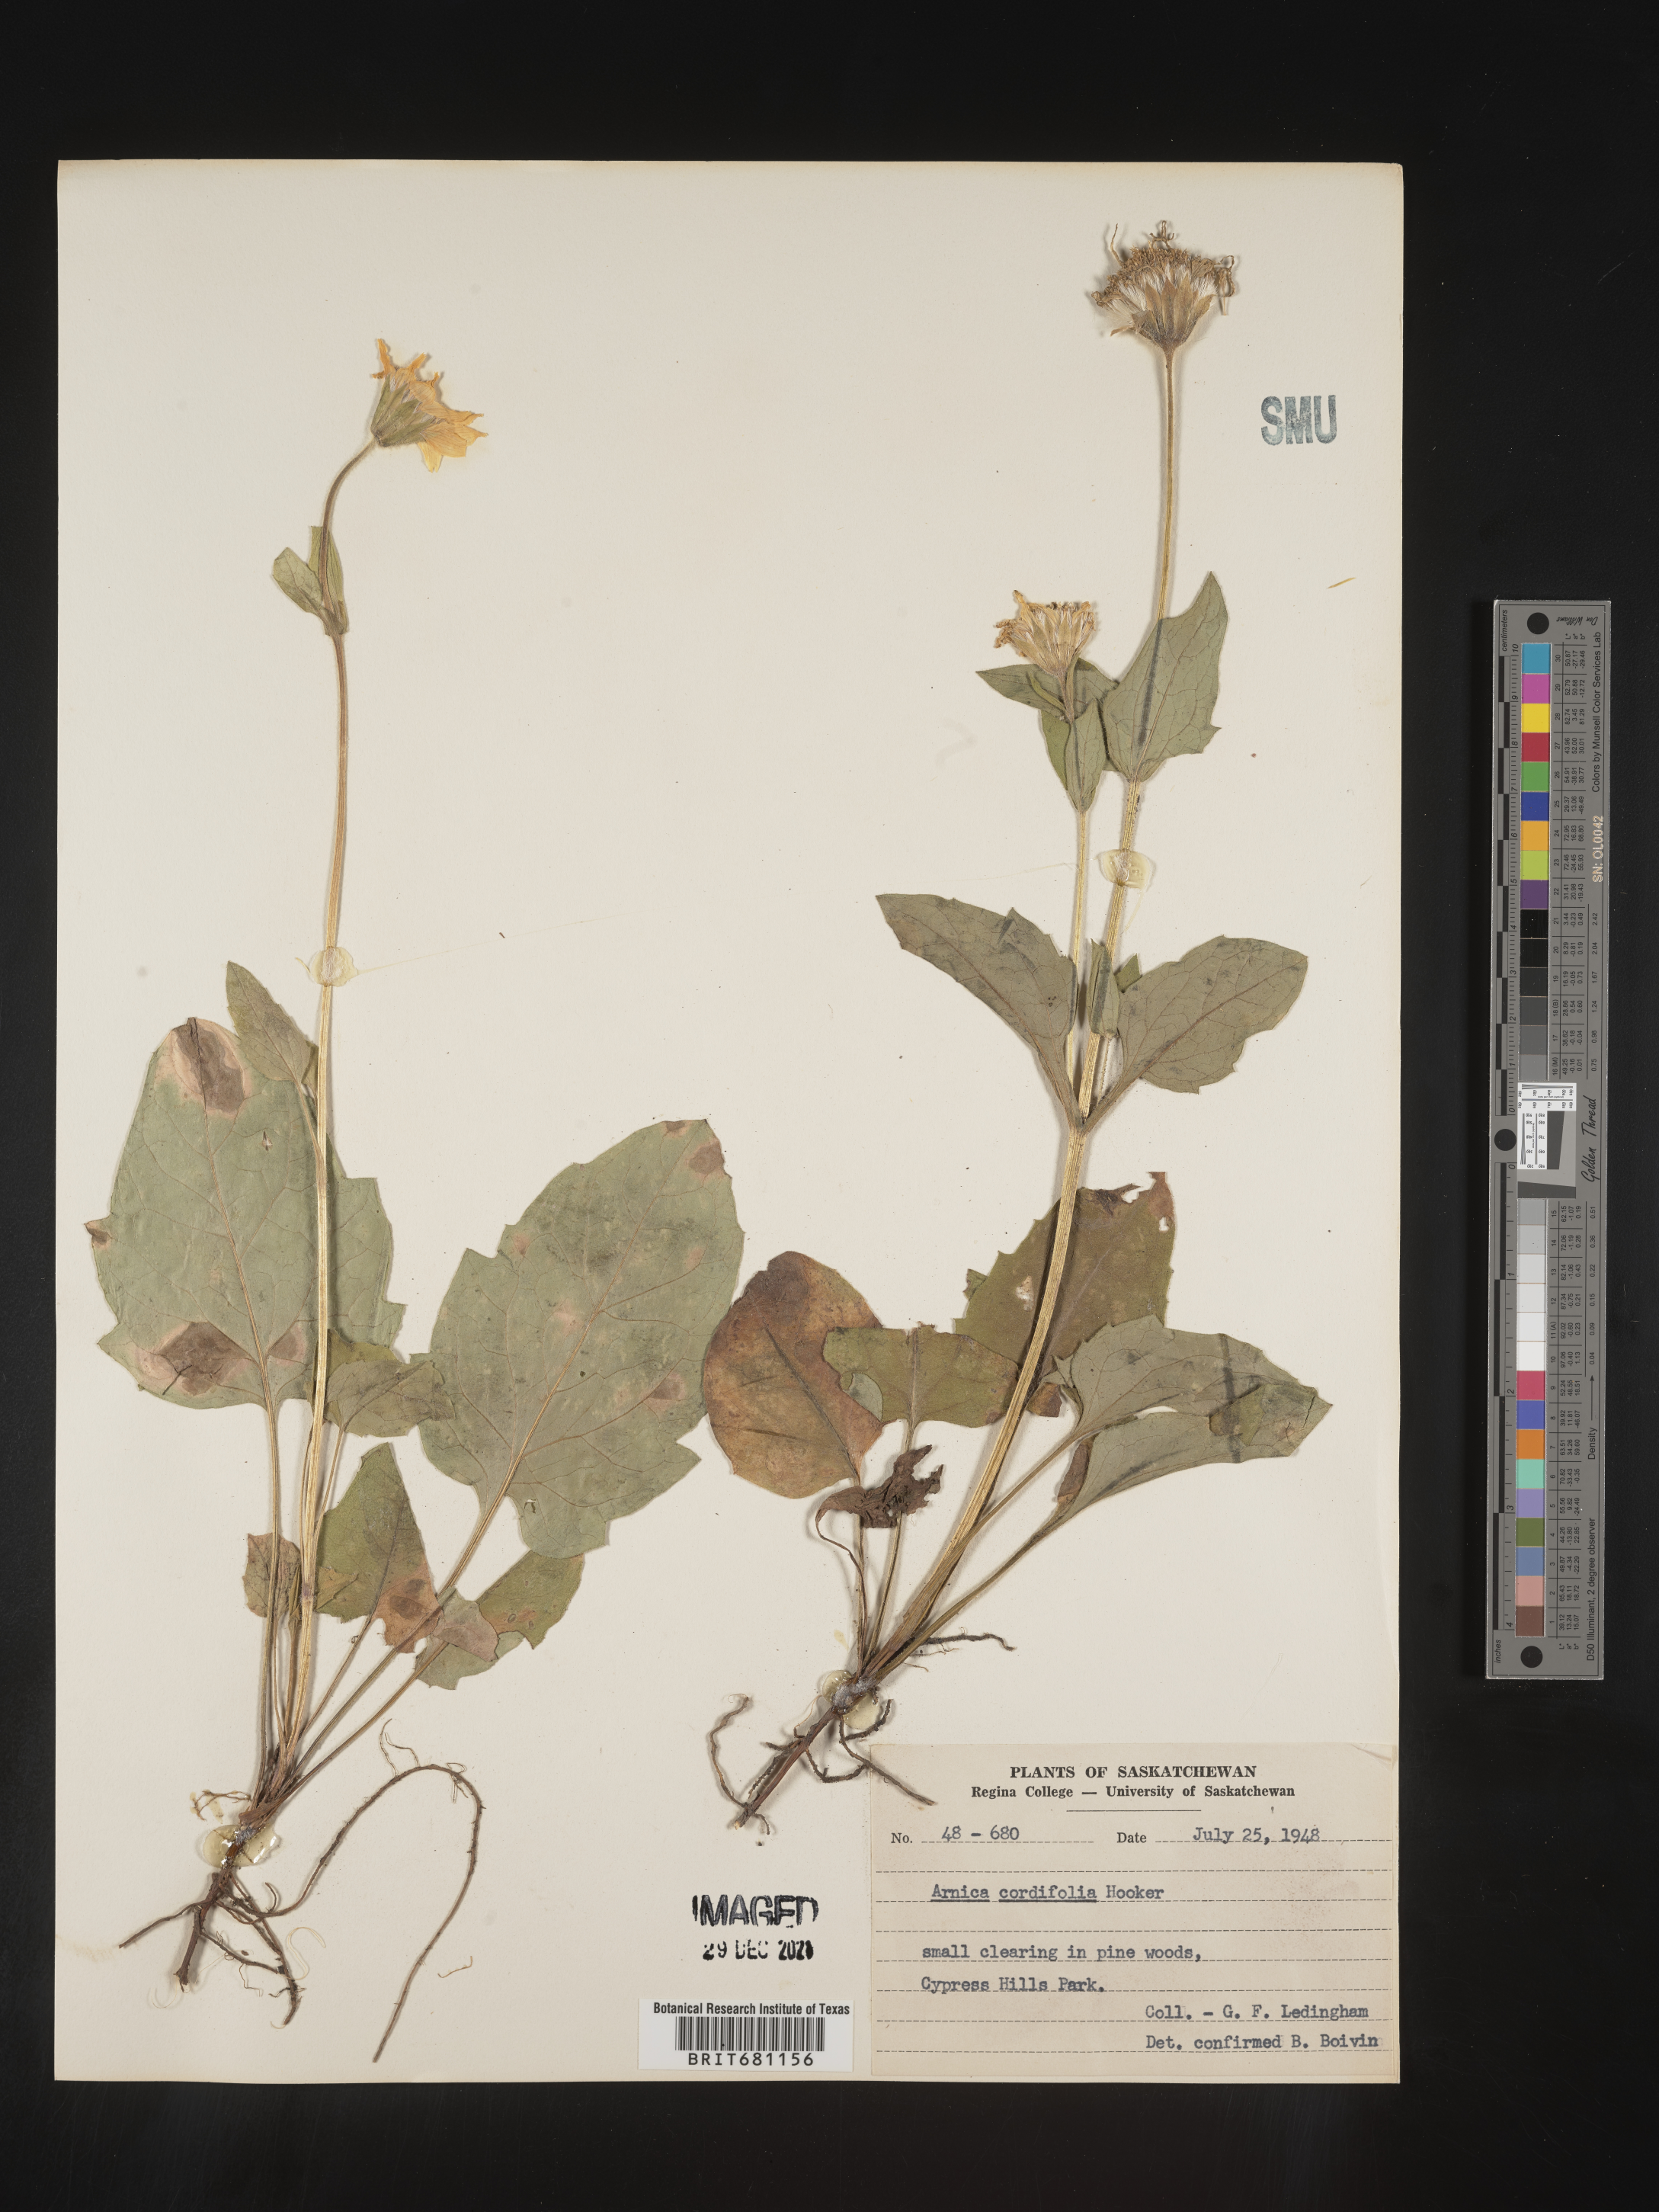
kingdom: Plantae
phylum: Tracheophyta
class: Magnoliopsida
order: Asterales
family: Asteraceae
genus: Arnica
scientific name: Arnica cordifolia
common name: Heart-leaf arnica
